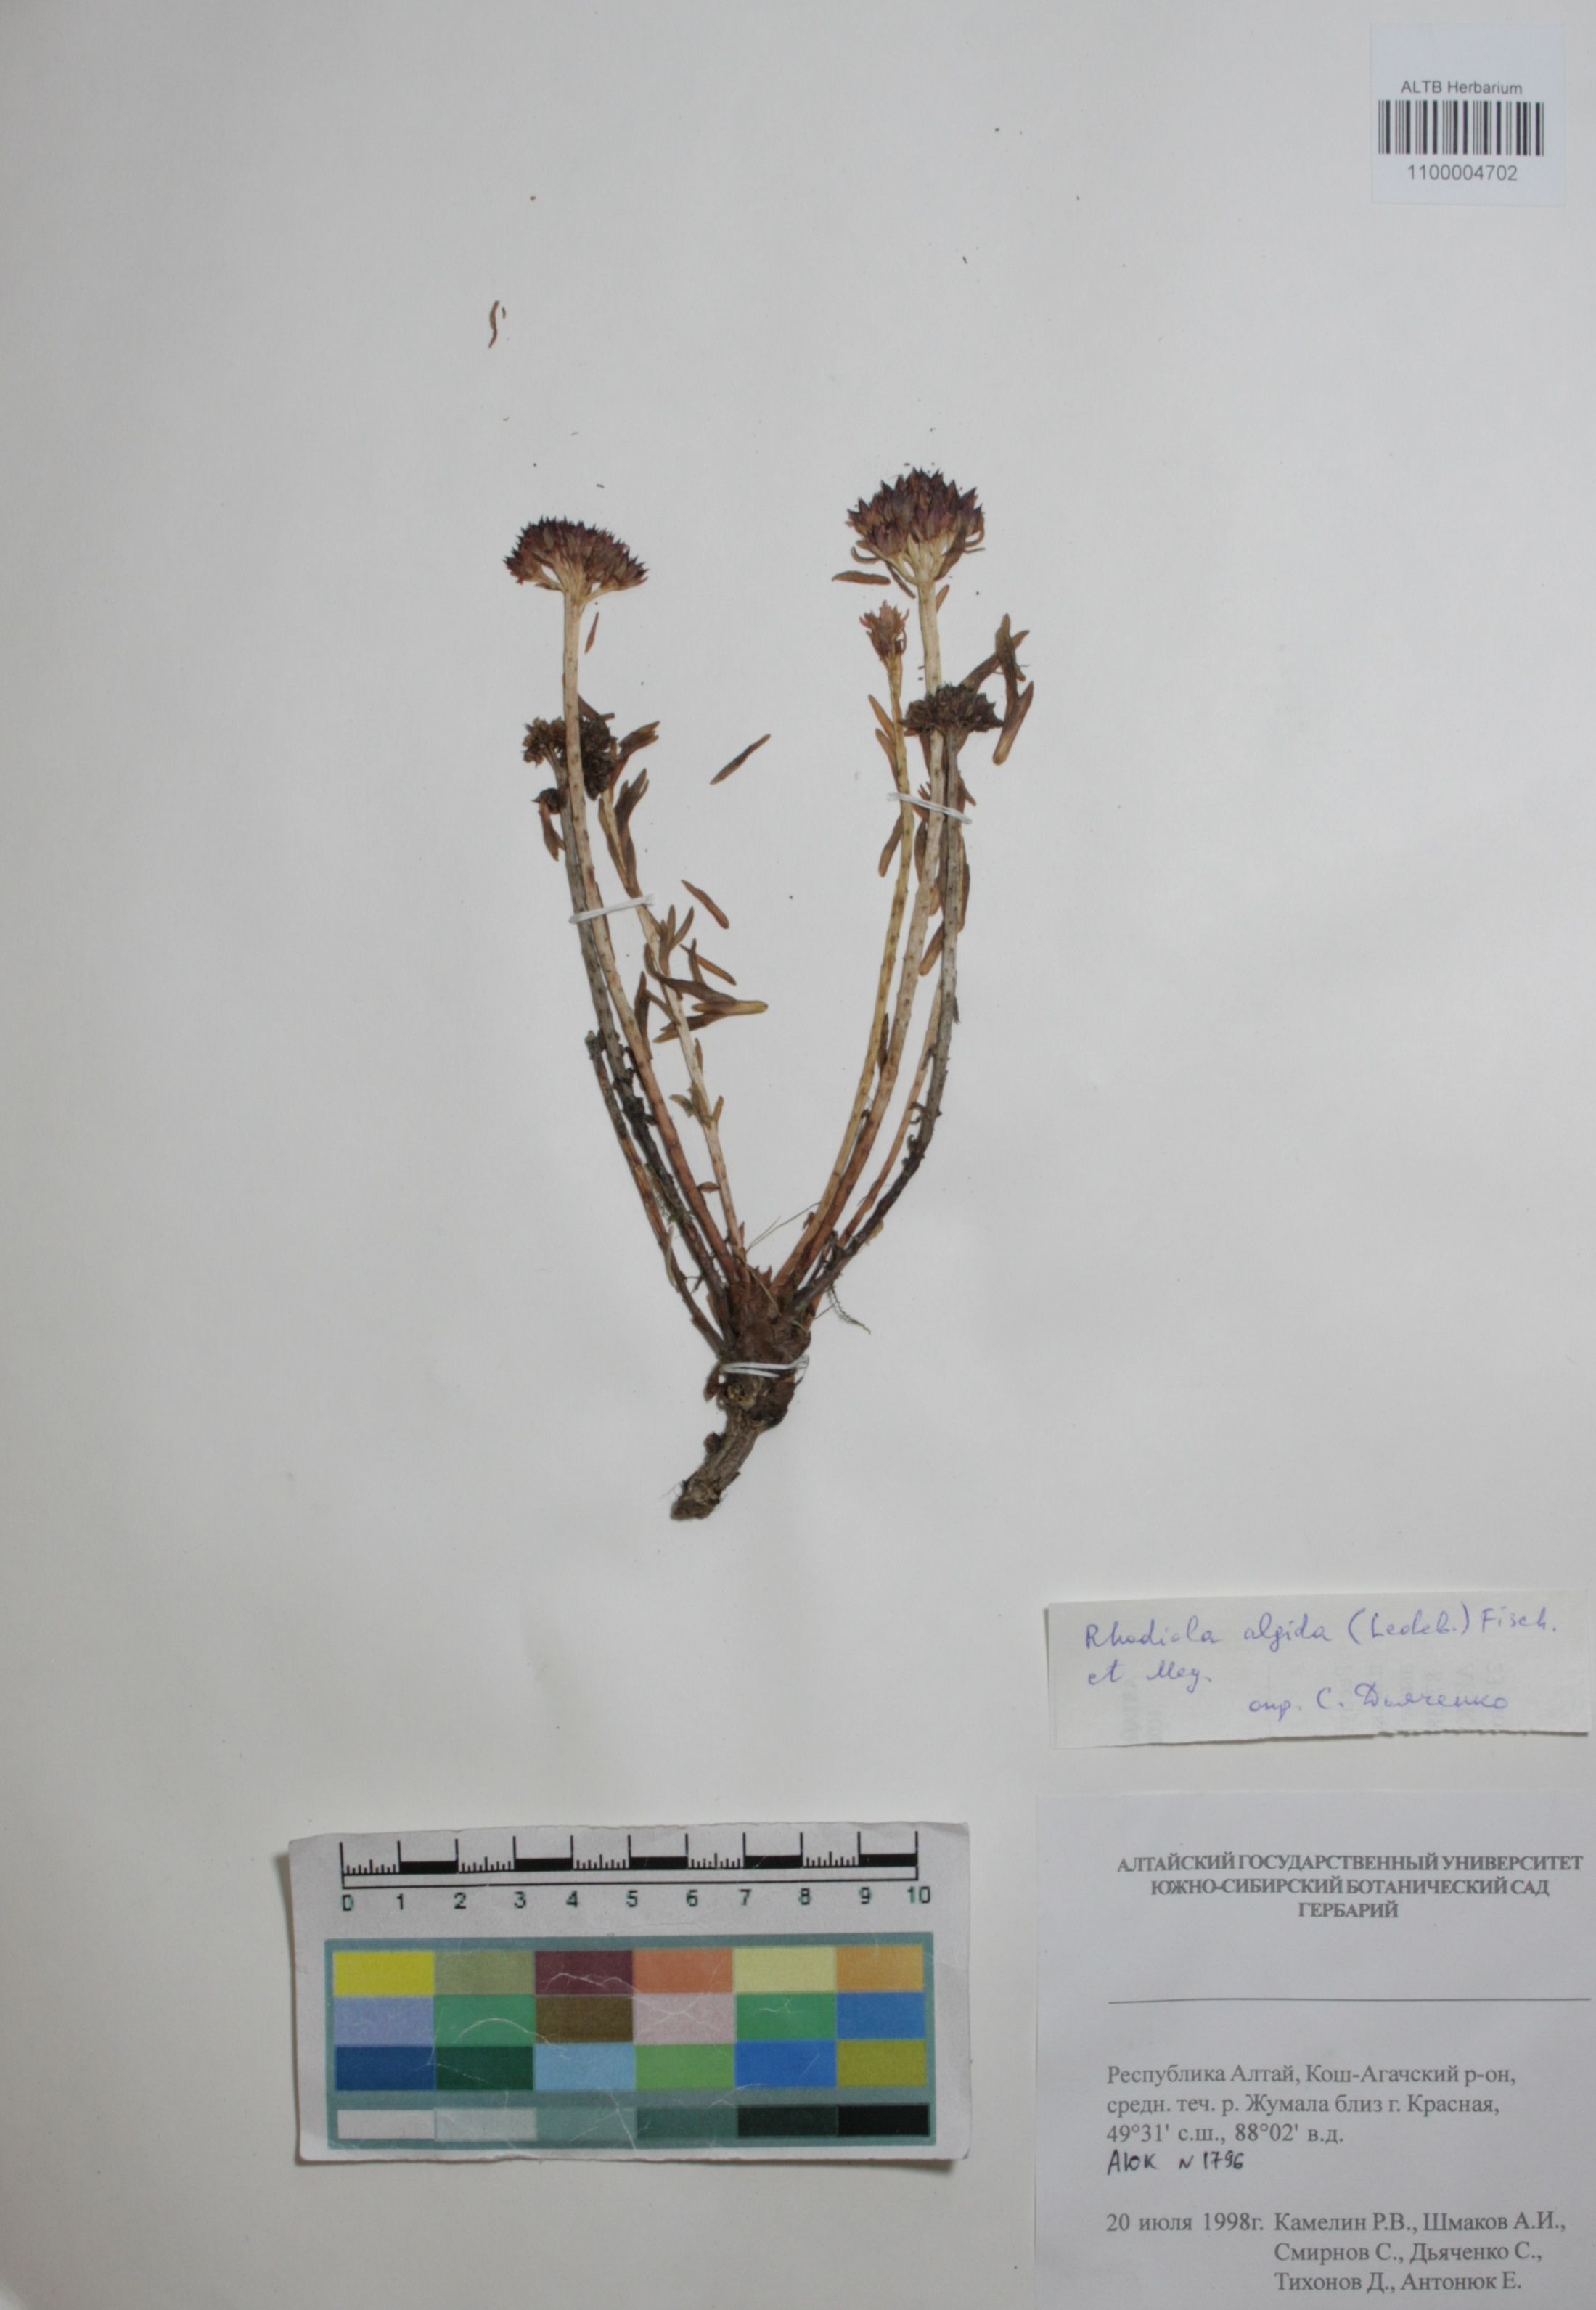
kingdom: Plantae
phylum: Tracheophyta
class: Magnoliopsida
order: Saxifragales
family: Crassulaceae
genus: Rhodiola
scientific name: Rhodiola algida
